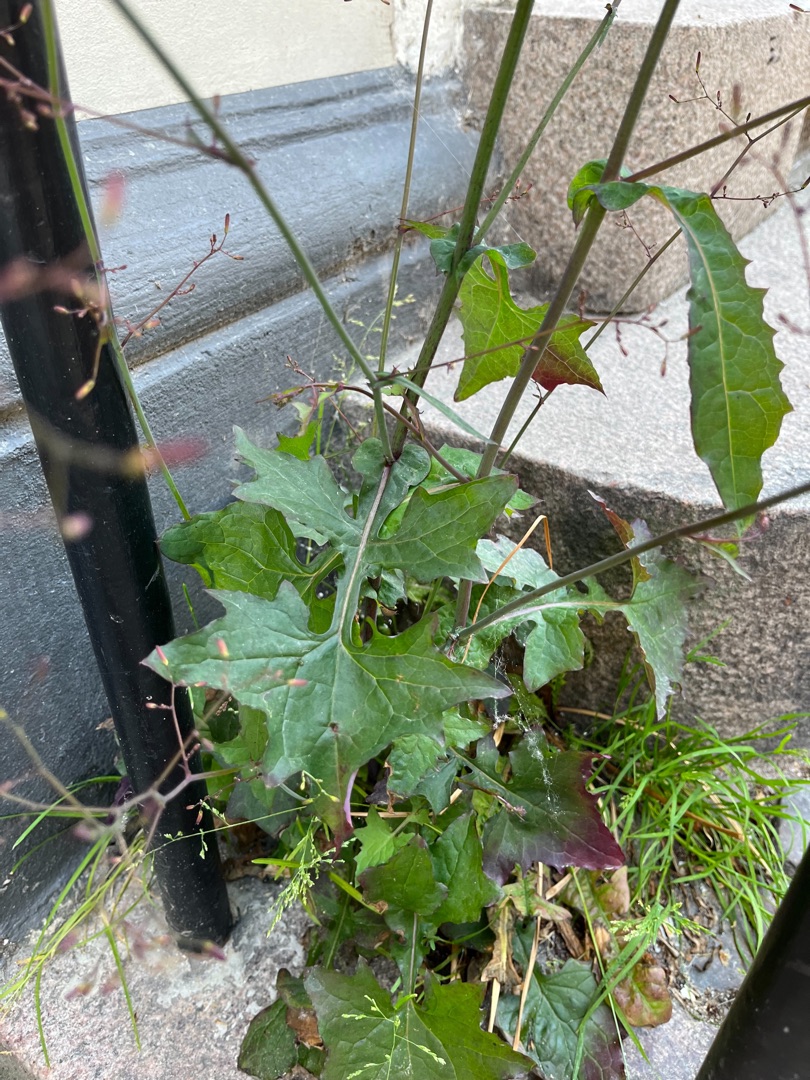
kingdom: Plantae
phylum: Tracheophyta
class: Magnoliopsida
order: Asterales
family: Asteraceae
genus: Mycelis
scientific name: Mycelis muralis
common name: Skov-salat
